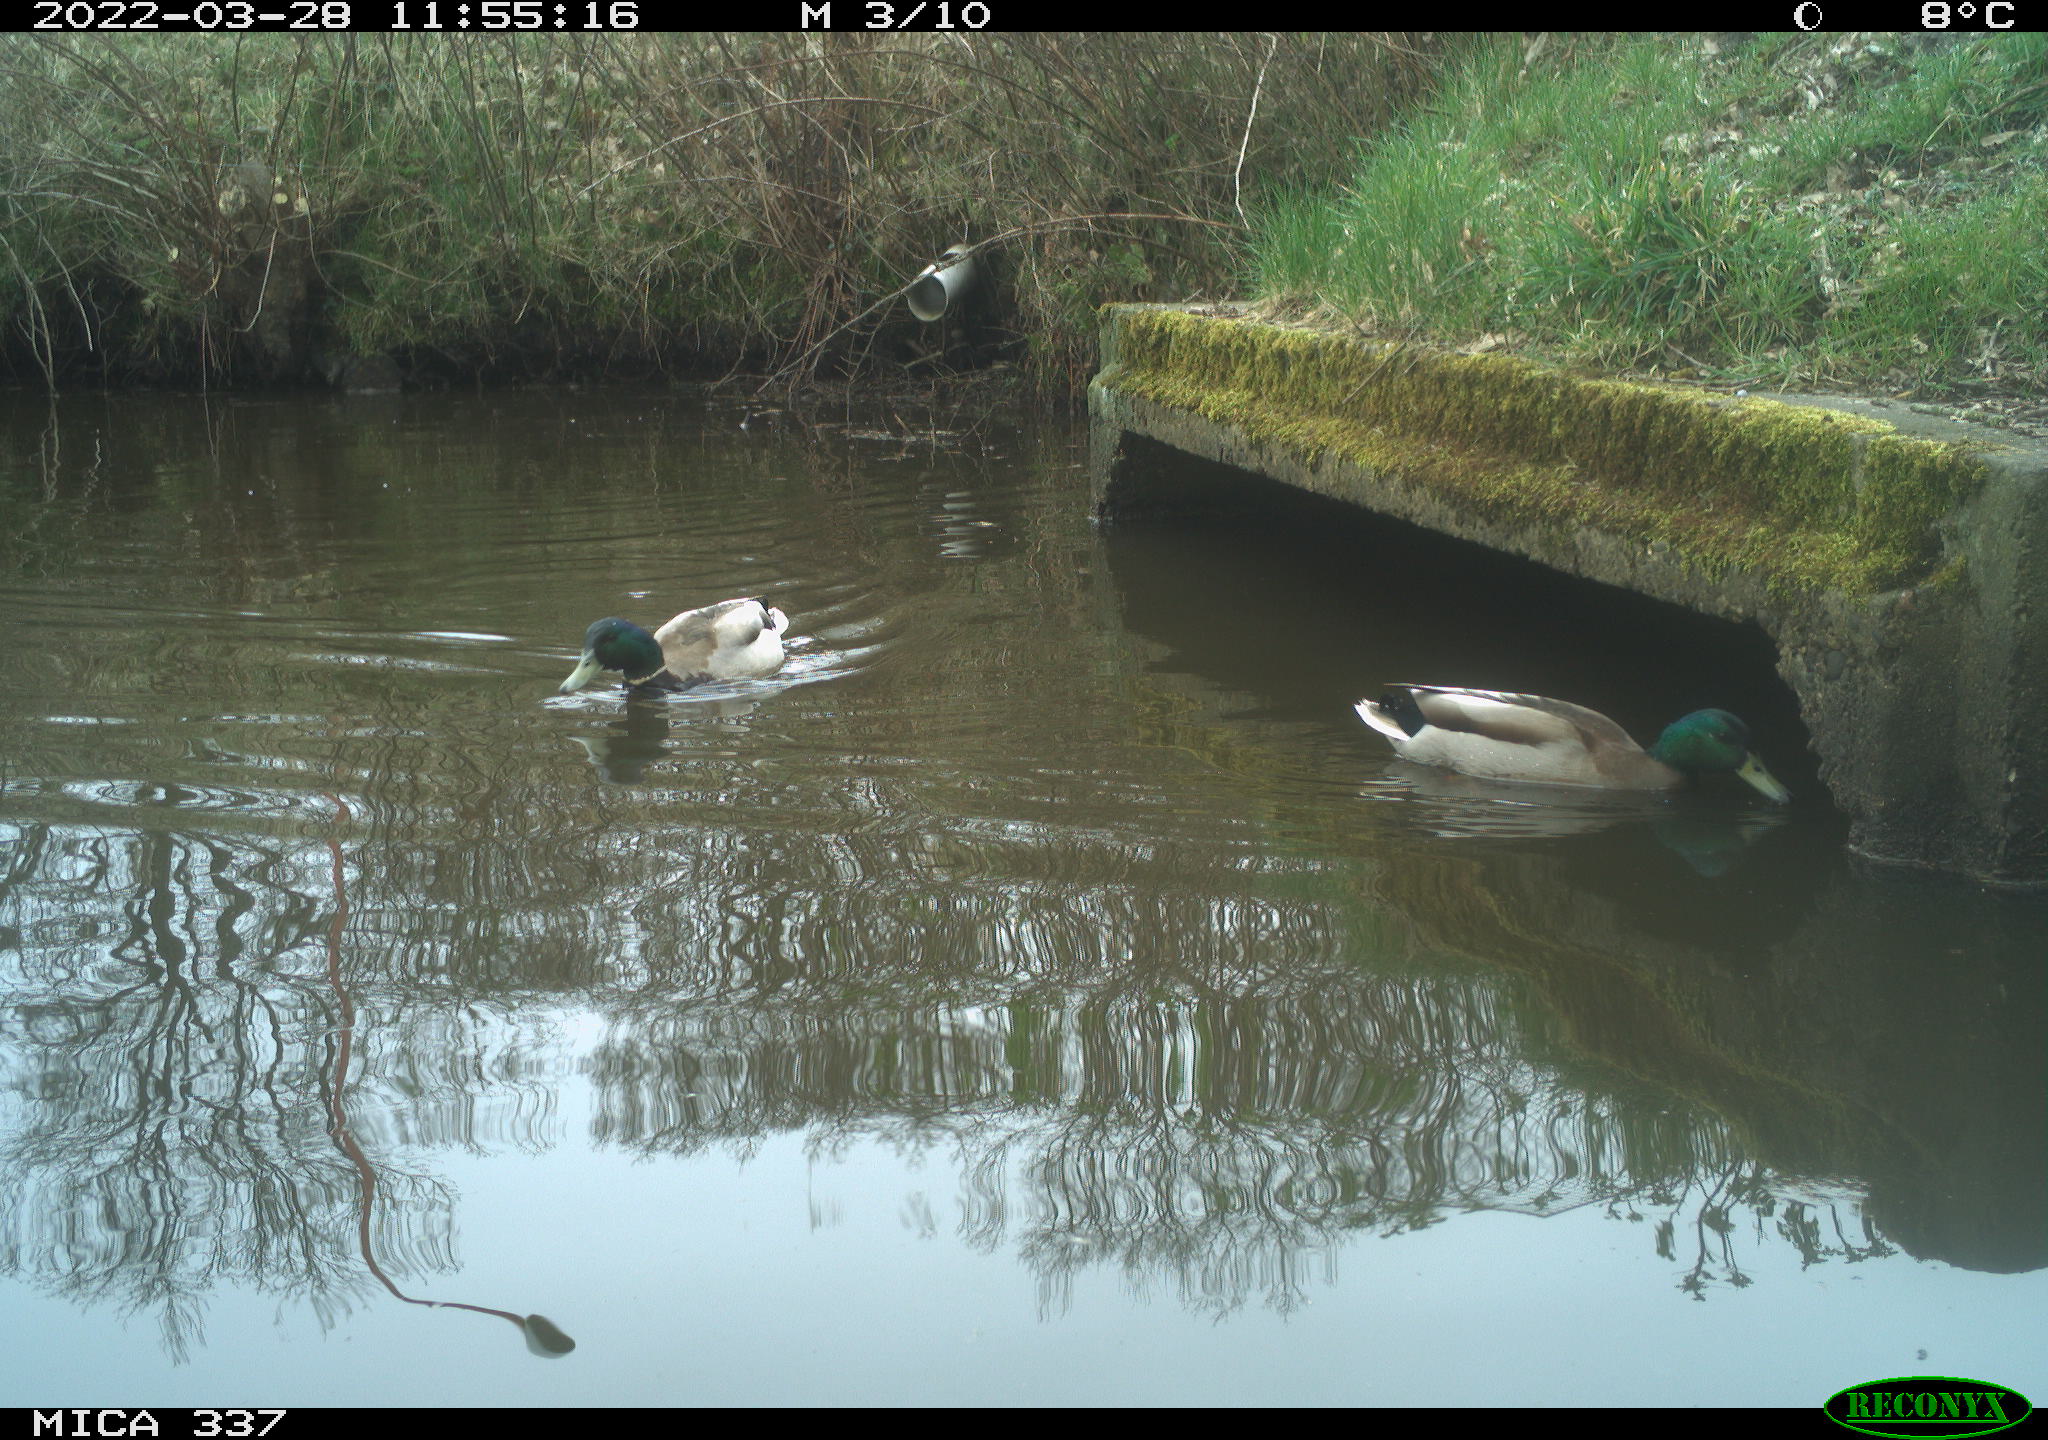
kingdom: Animalia
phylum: Chordata
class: Aves
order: Anseriformes
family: Anatidae
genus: Anas
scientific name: Anas platyrhynchos
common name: Mallard
